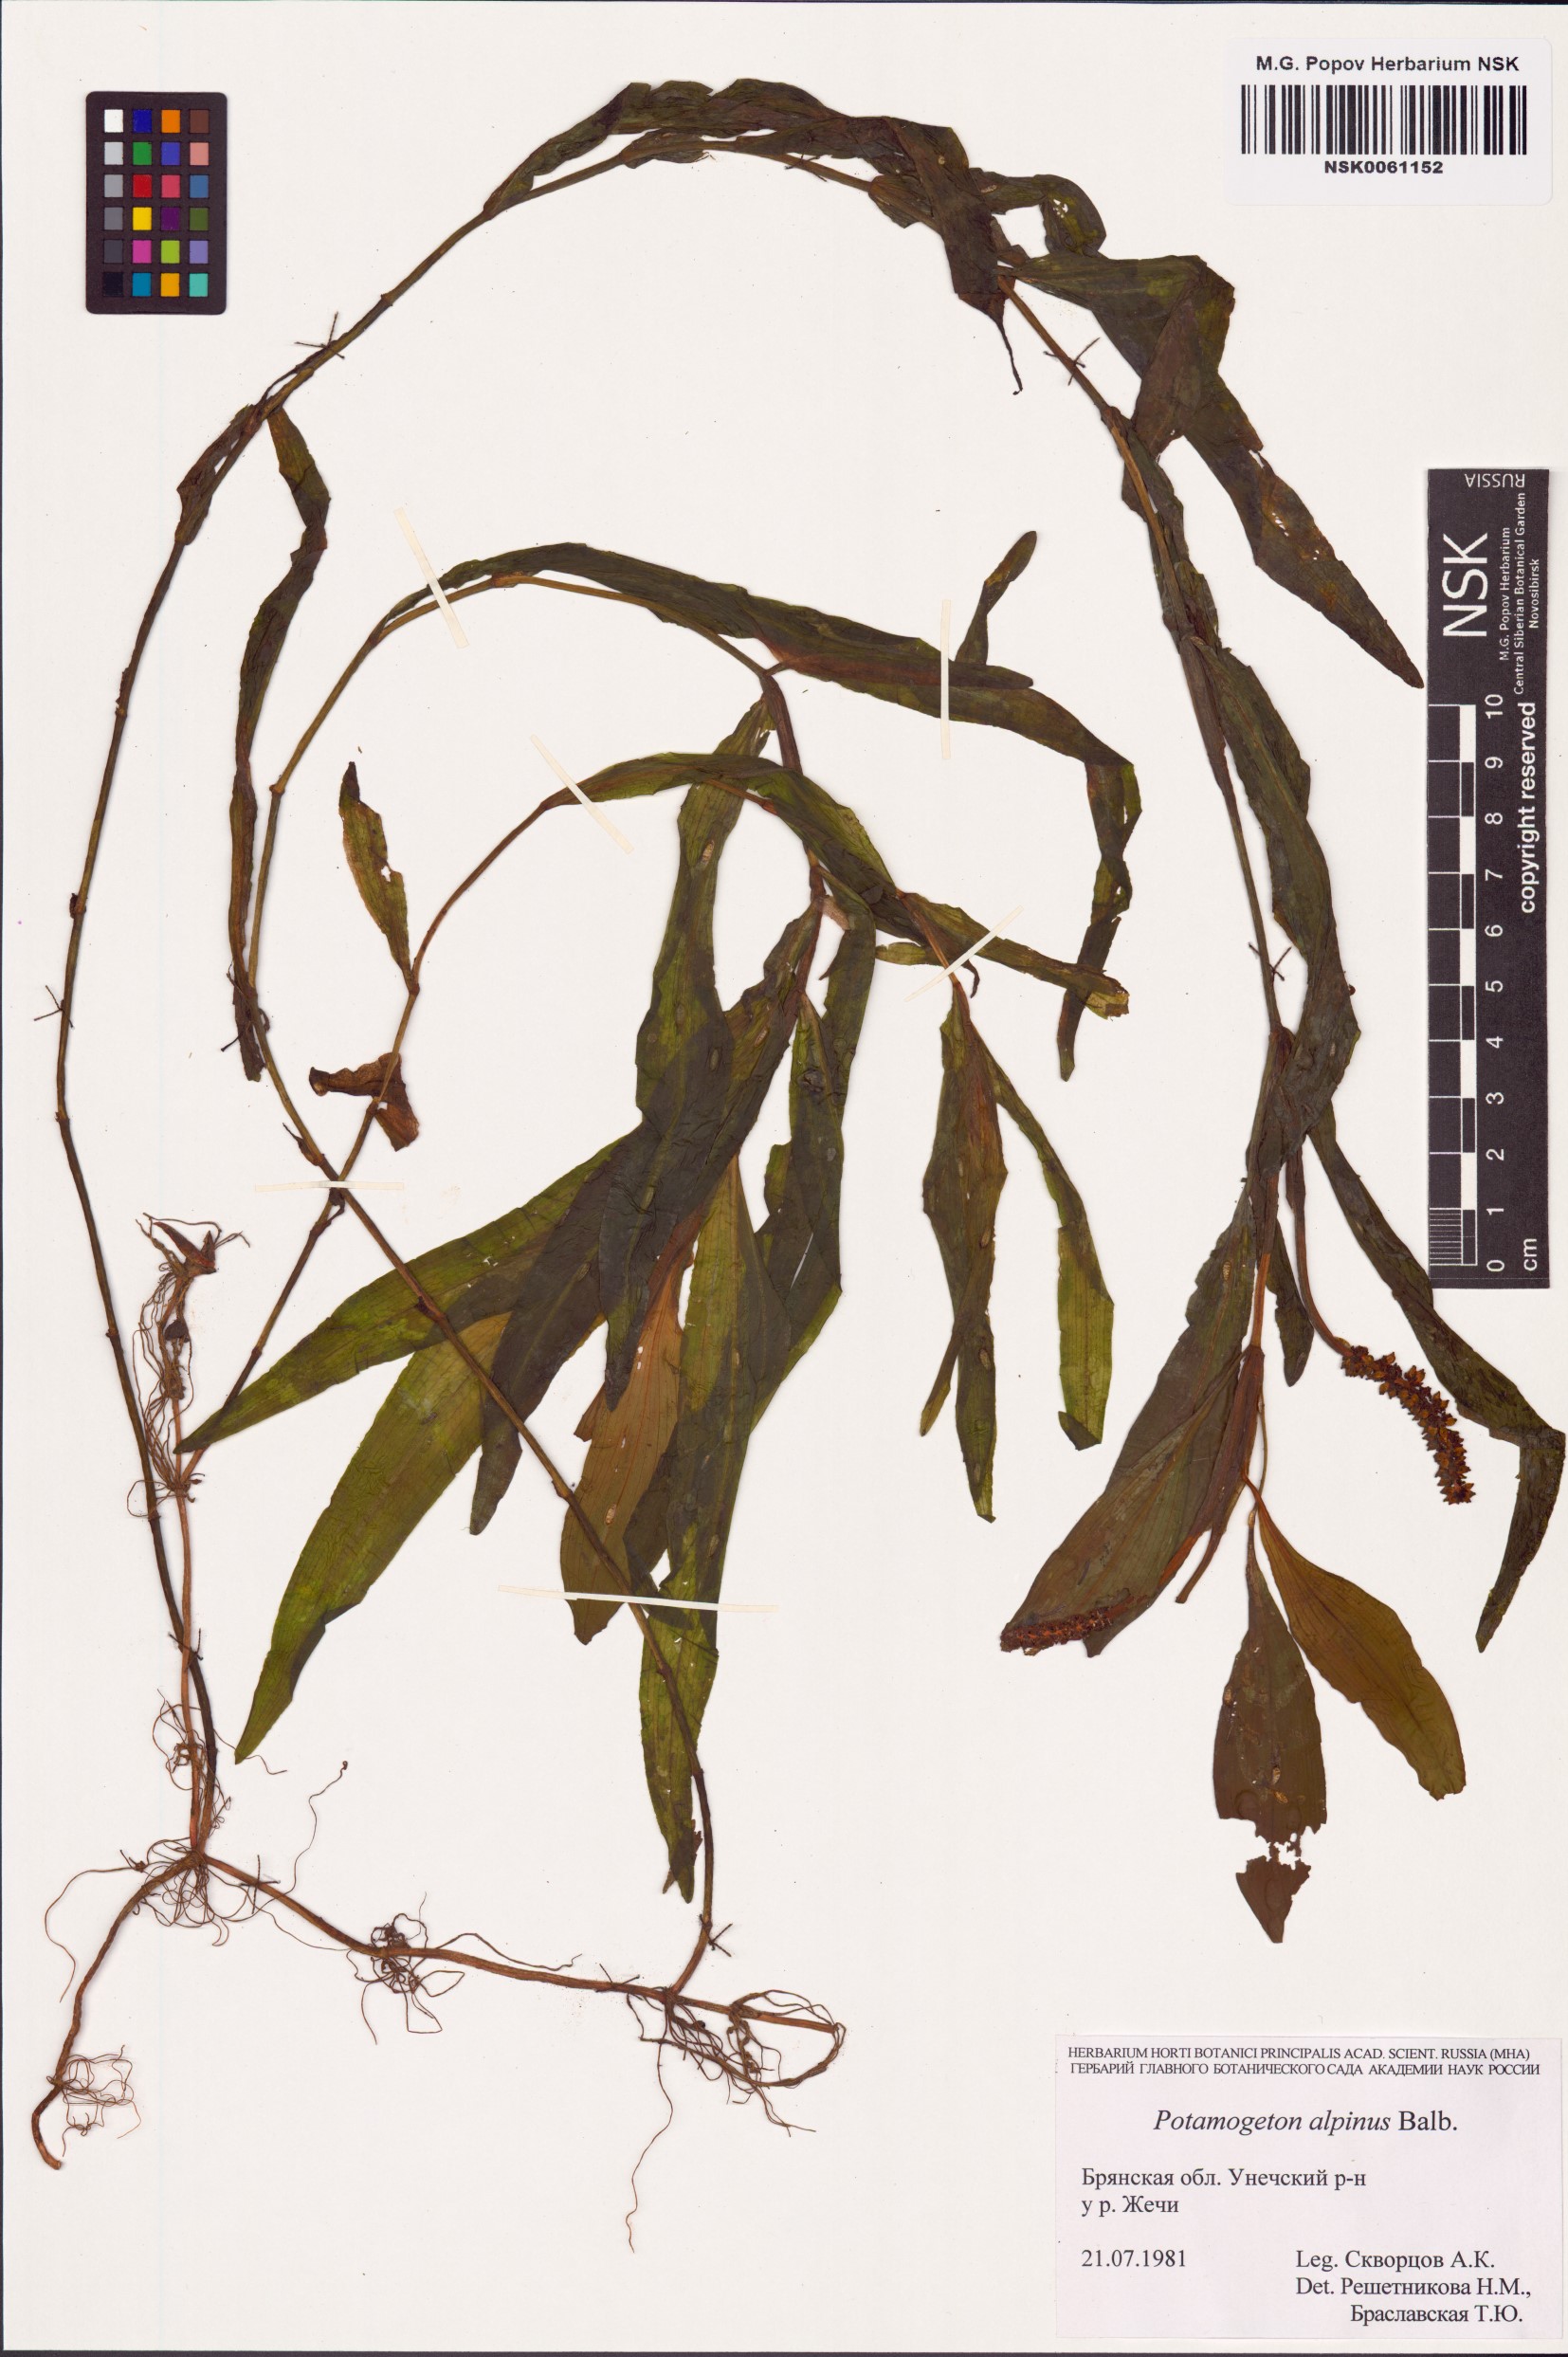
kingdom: Plantae
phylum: Tracheophyta
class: Liliopsida
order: Alismatales
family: Potamogetonaceae
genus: Potamogeton
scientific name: Potamogeton alpinus
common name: Red pondweed
